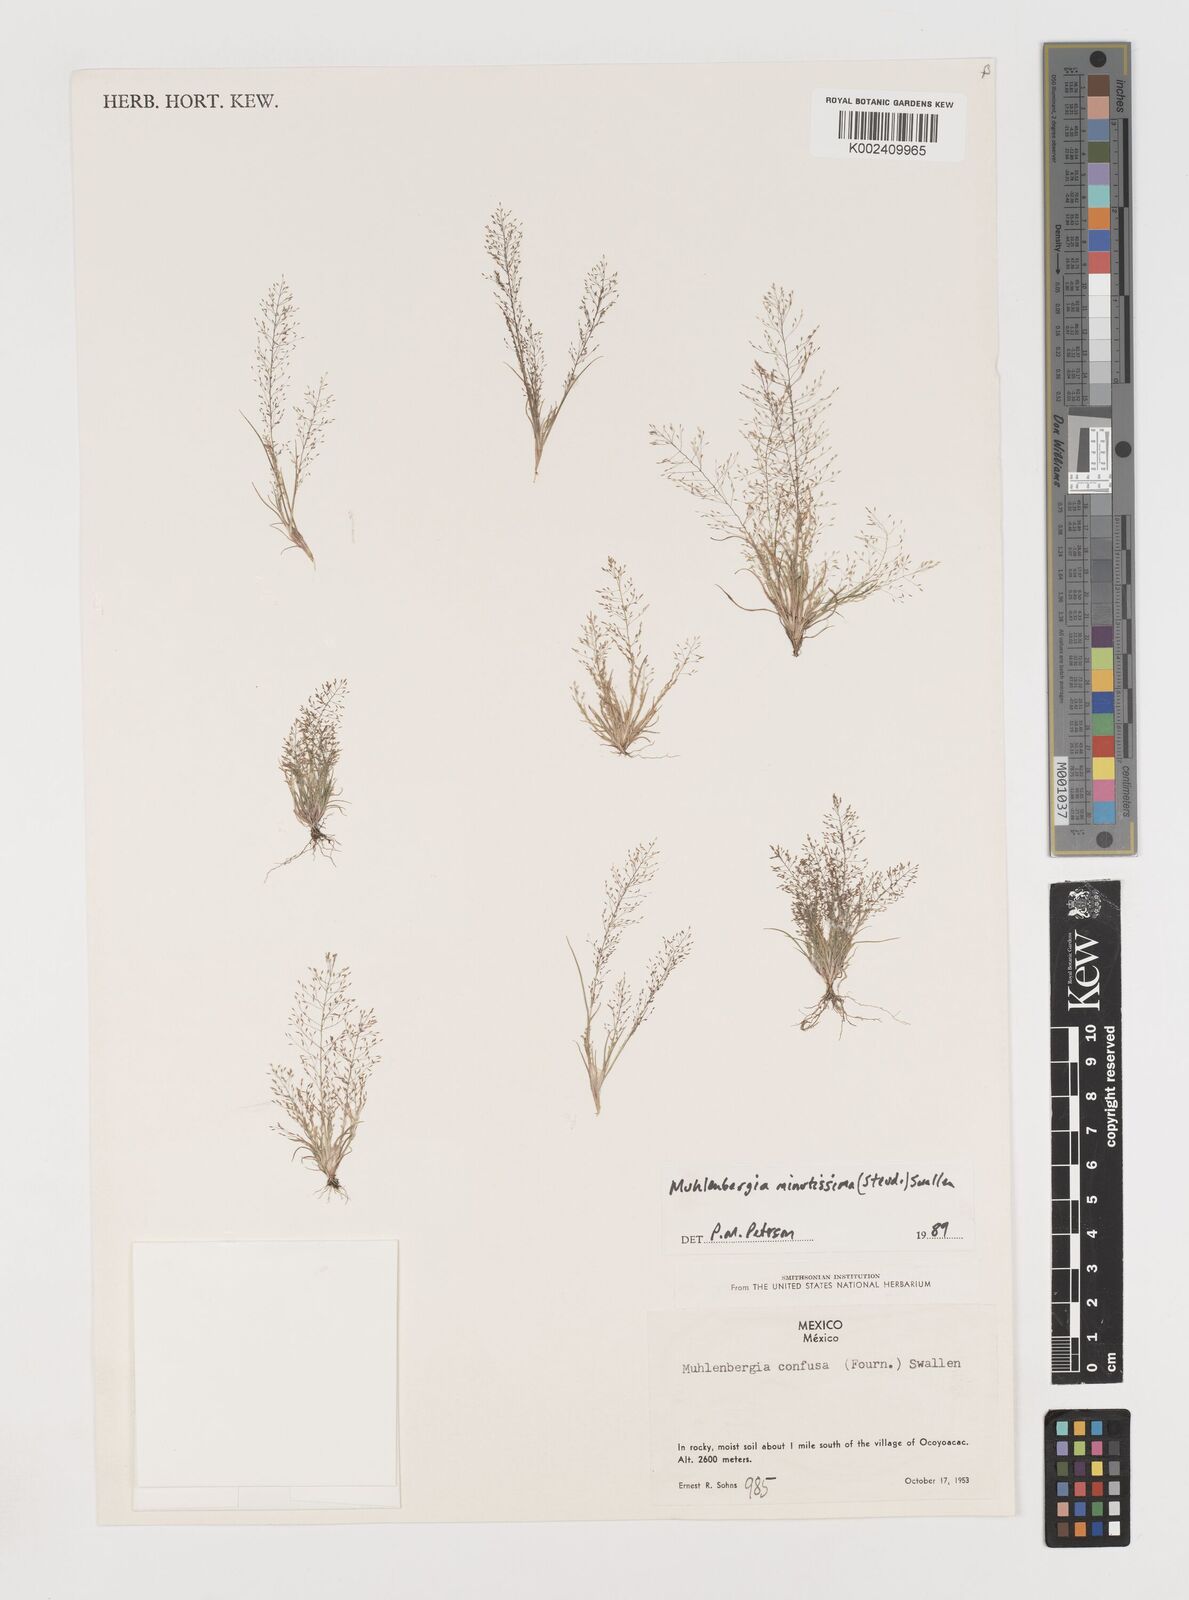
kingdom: Plantae
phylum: Tracheophyta
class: Liliopsida
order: Poales
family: Poaceae
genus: Muhlenbergia
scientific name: Muhlenbergia minutissima
